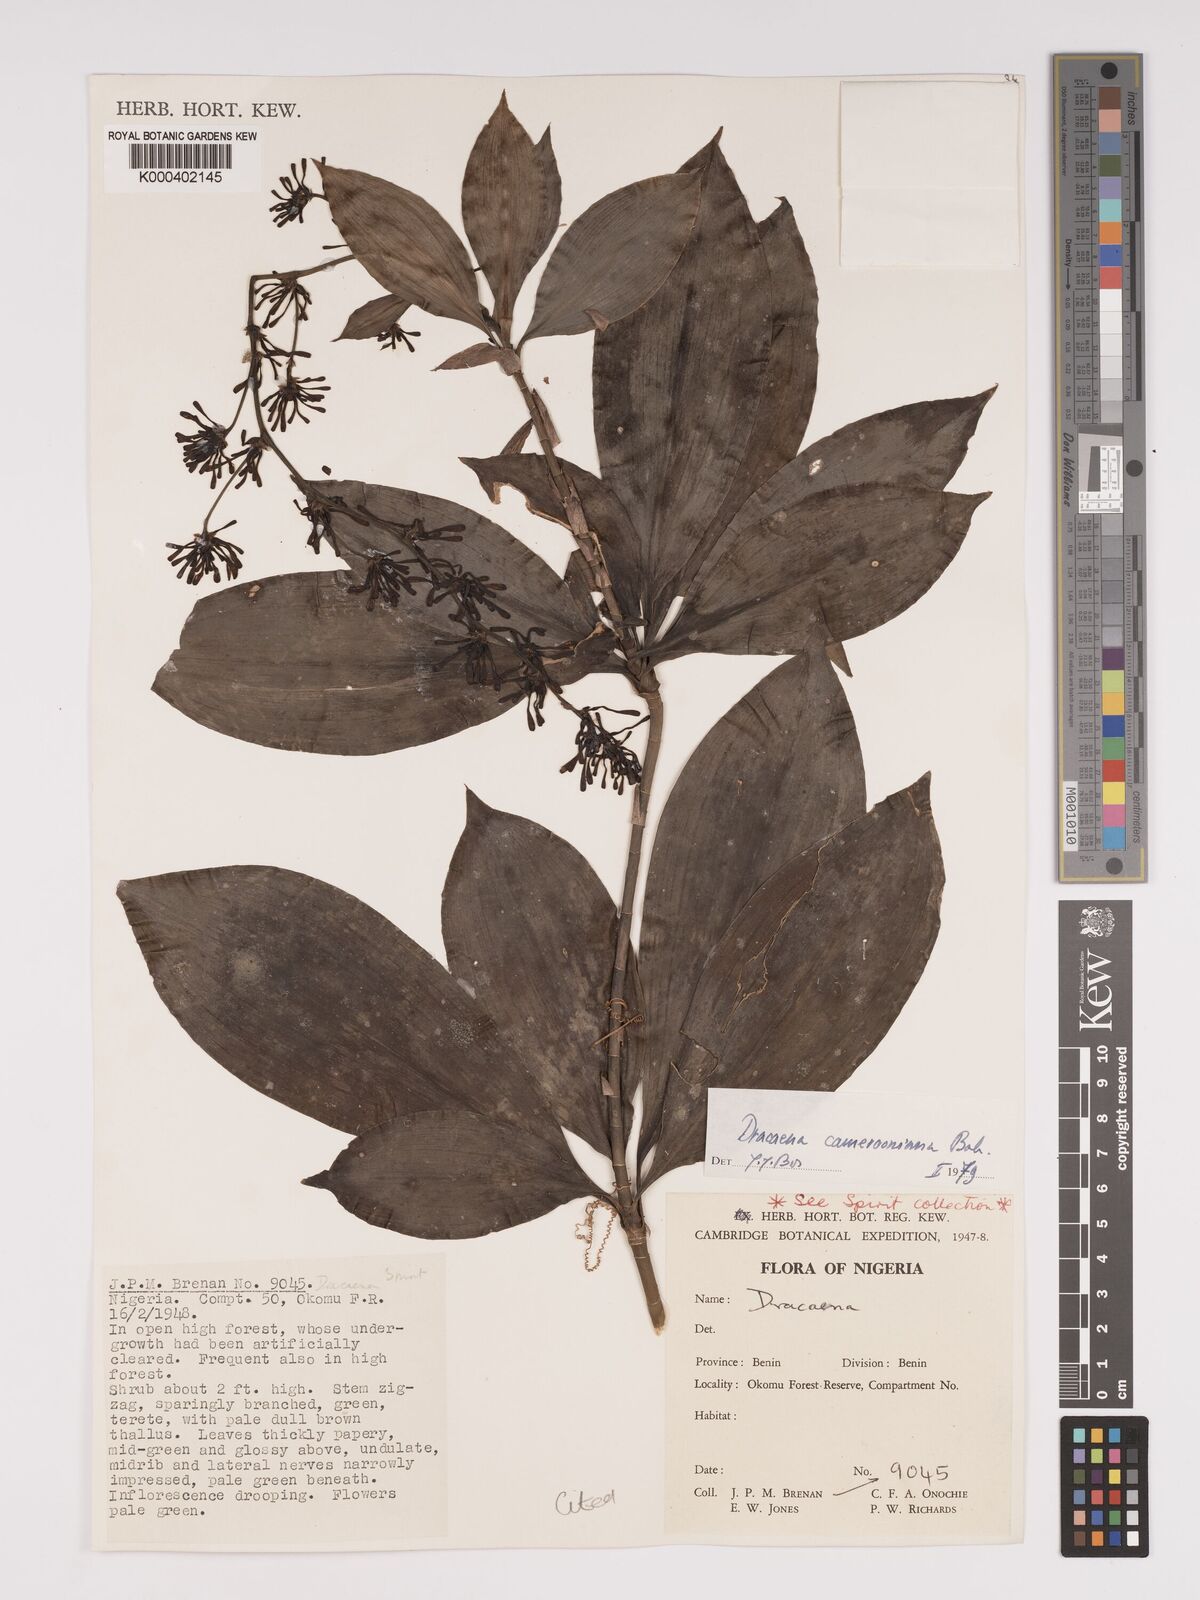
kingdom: Plantae
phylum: Tracheophyta
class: Liliopsida
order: Asparagales
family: Asparagaceae
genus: Dracaena
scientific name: Dracaena camerooniana
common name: Dragon tree
